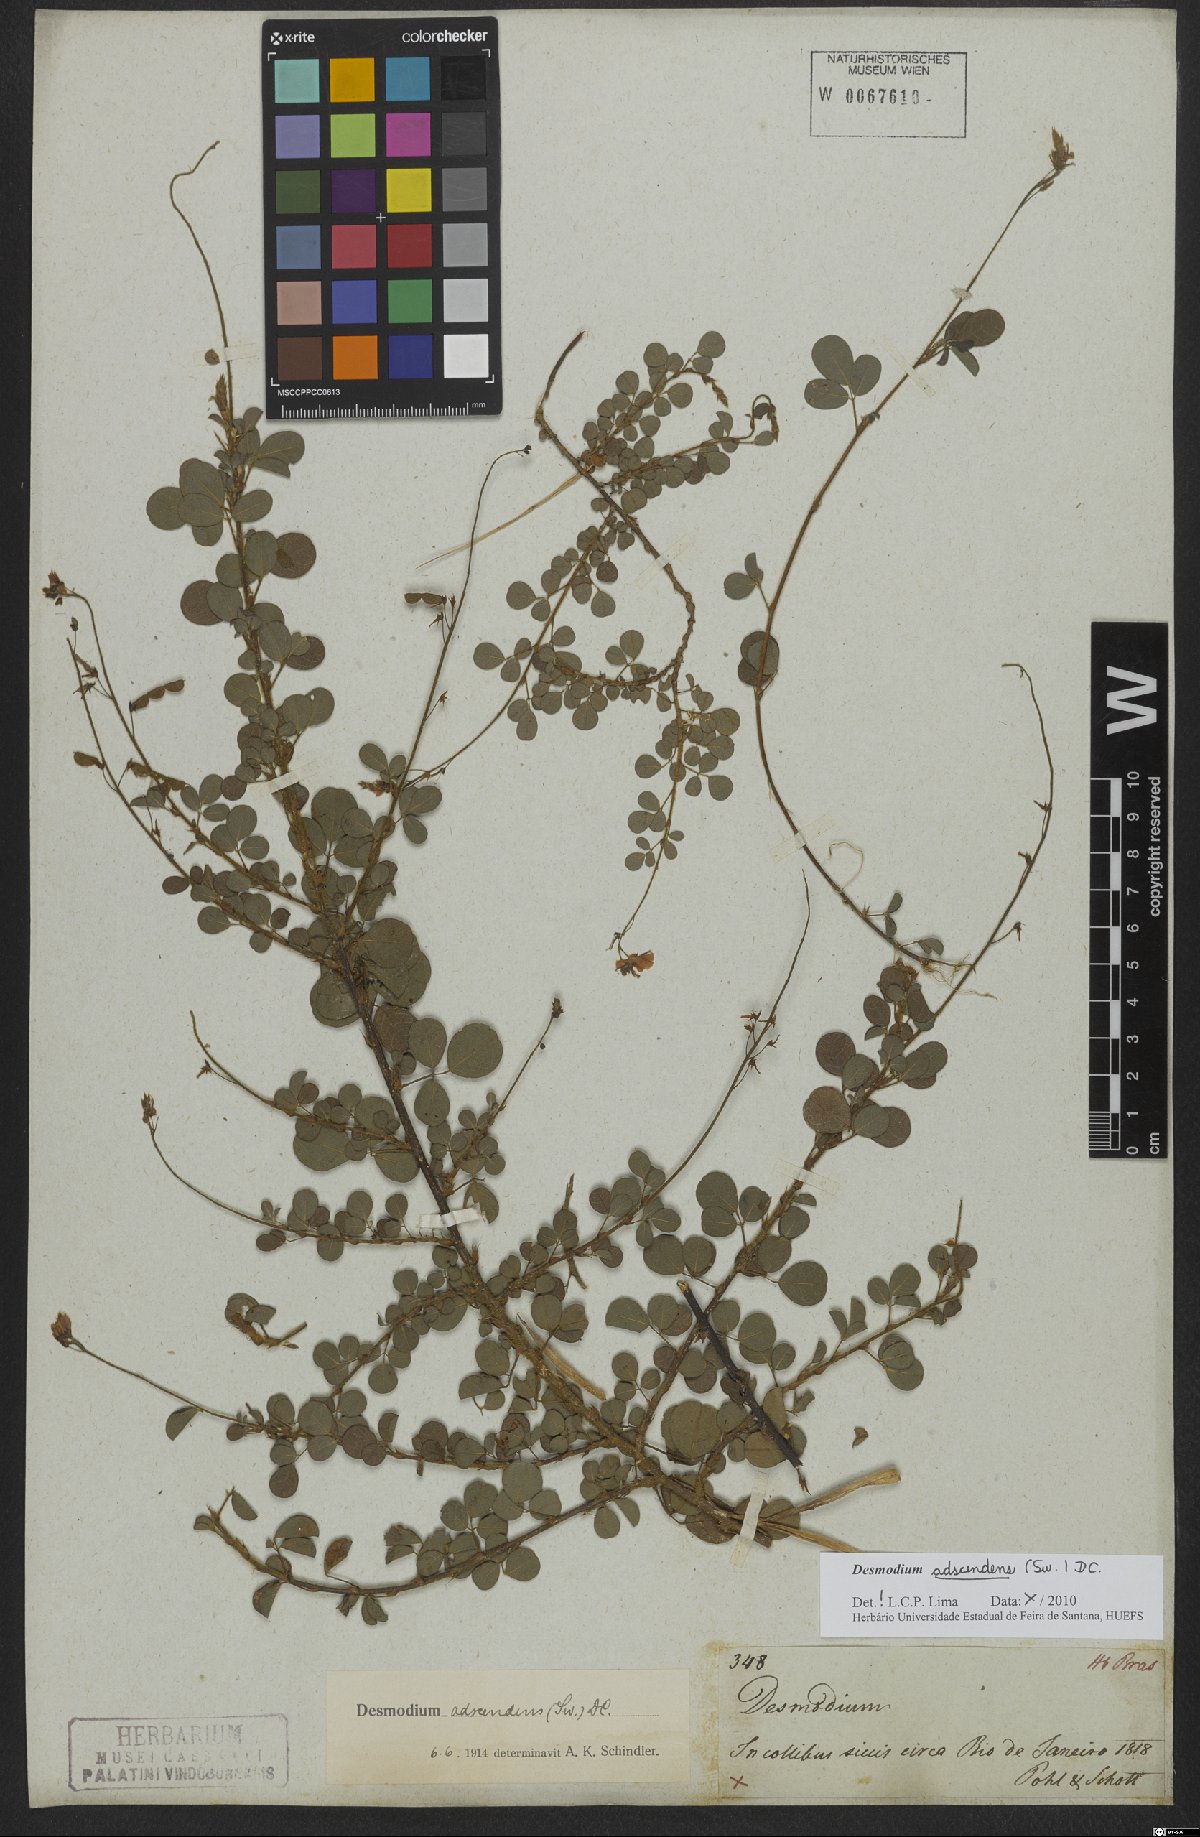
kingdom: Plantae
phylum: Tracheophyta
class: Magnoliopsida
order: Fabales
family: Fabaceae
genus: Grona
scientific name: Grona adscendens
